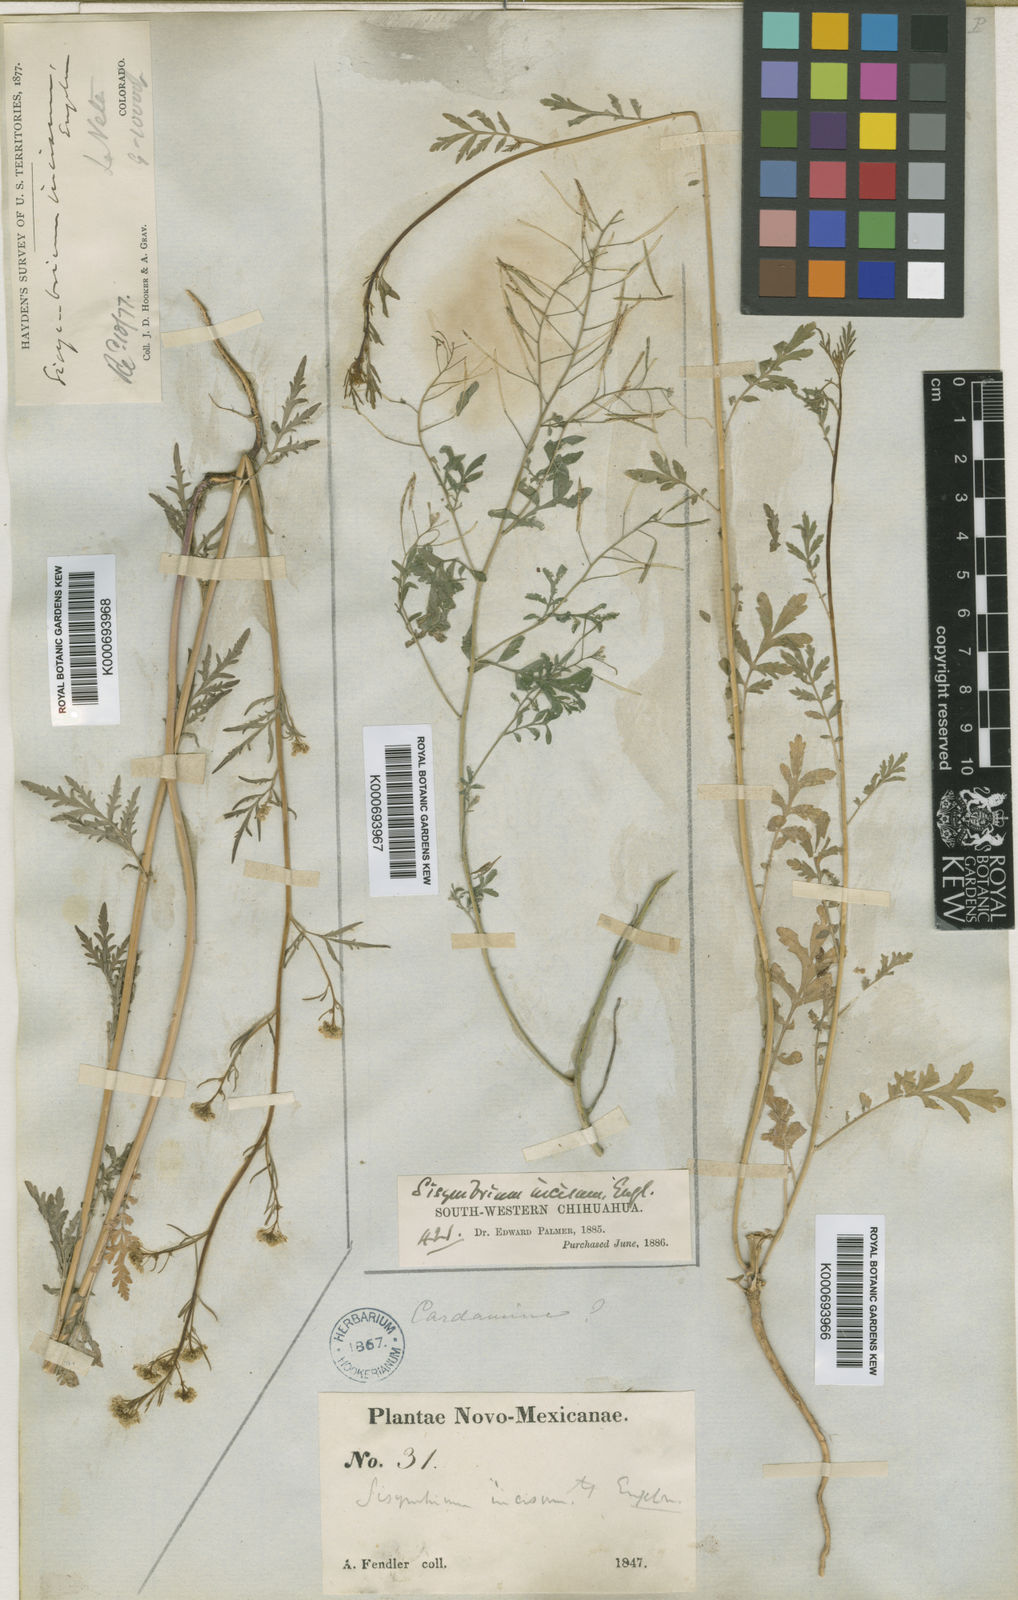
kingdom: Plantae
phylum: Tracheophyta
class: Magnoliopsida
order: Brassicales
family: Brassicaceae
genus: Sisymbrium
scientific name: Sisymbrium
